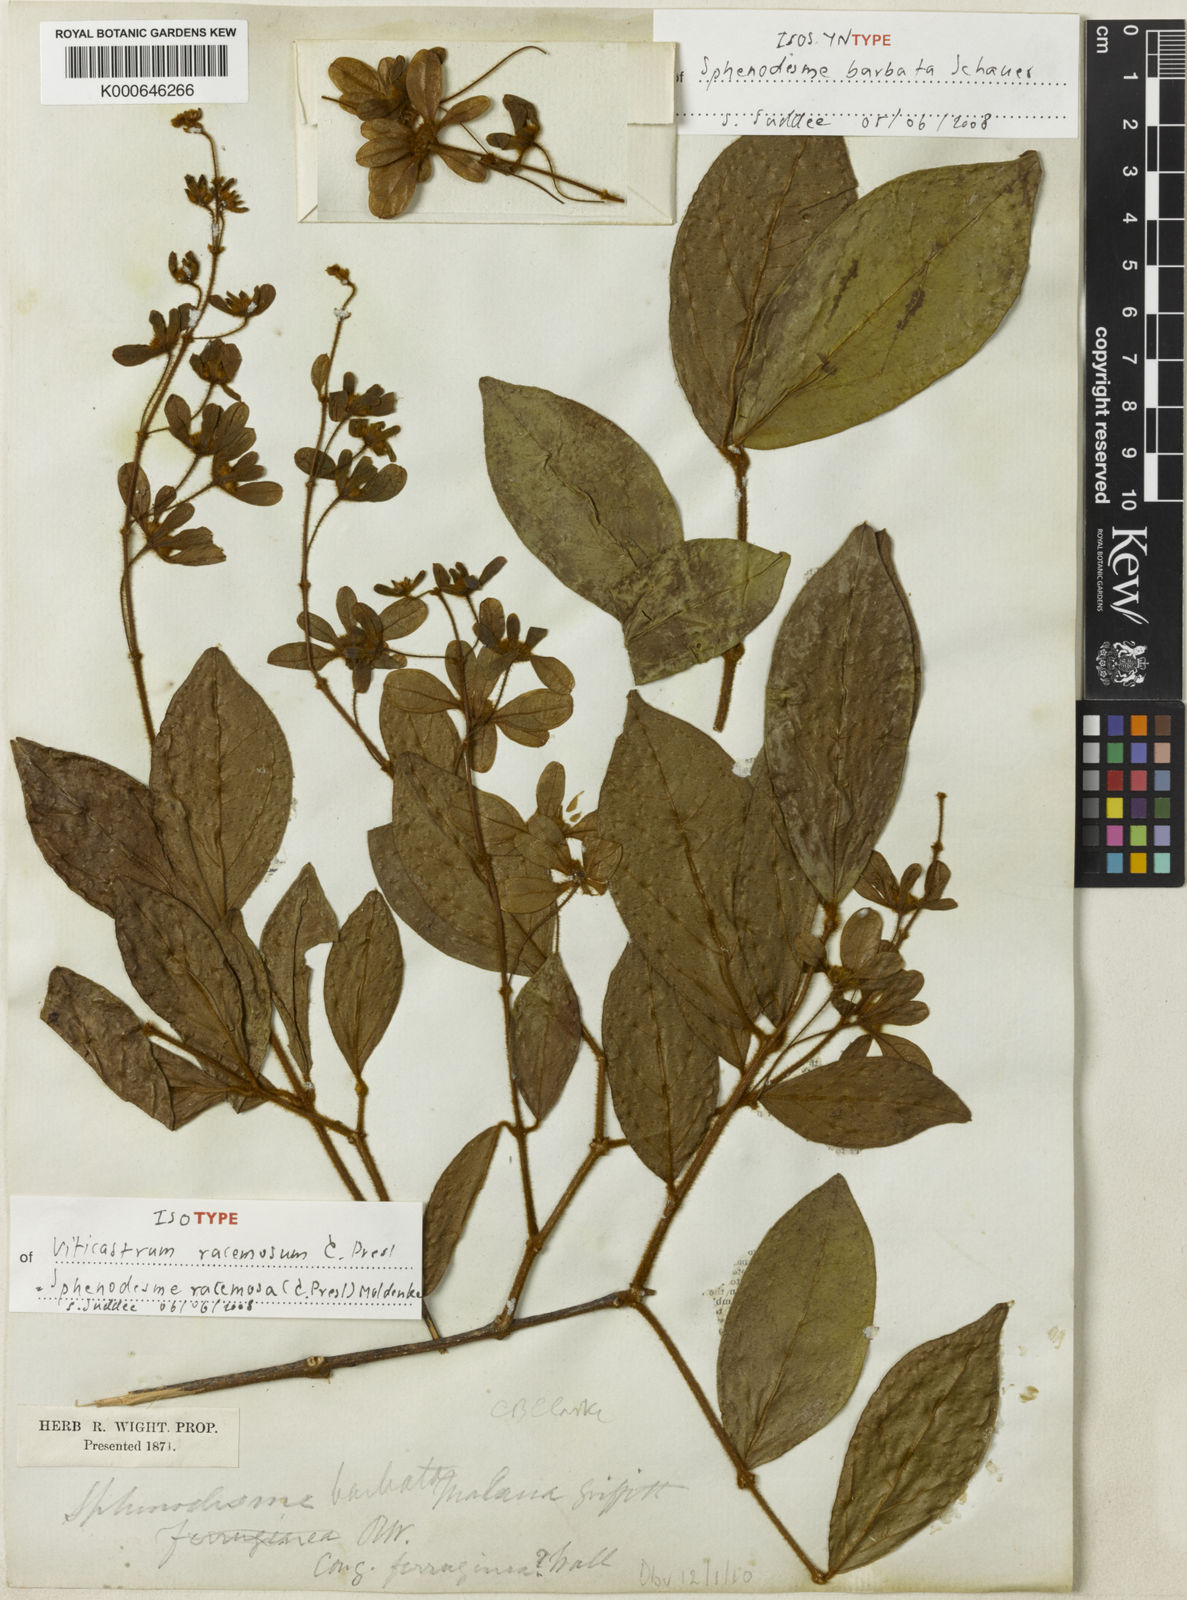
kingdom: Plantae
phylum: Tracheophyta
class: Magnoliopsida
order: Lamiales
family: Lamiaceae
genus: Sphenodesme
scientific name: Sphenodesme racemosa
